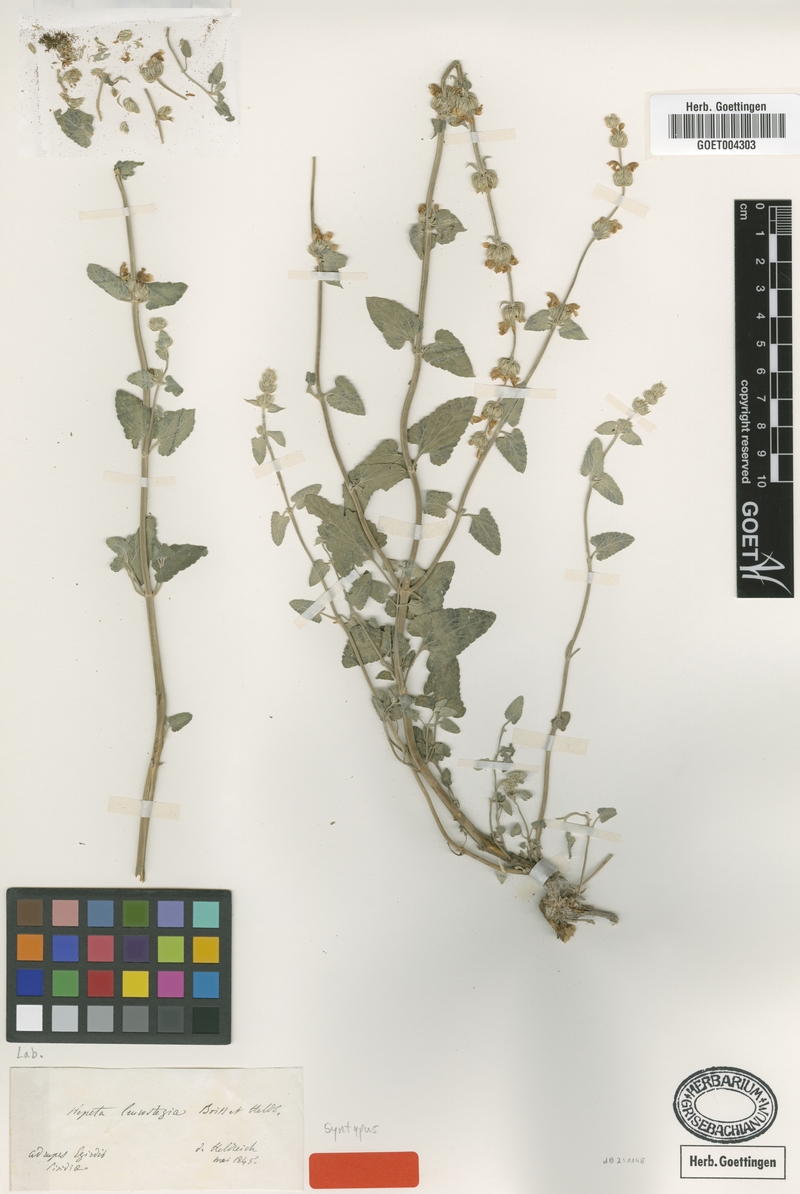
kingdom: Plantae
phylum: Tracheophyta
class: Magnoliopsida
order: Lamiales
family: Lamiaceae
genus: Nepeta
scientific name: Nepeta italica
